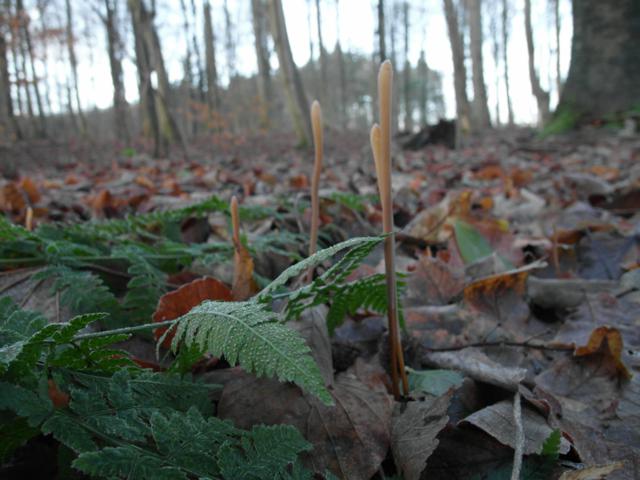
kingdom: Fungi
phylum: Basidiomycota
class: Agaricomycetes
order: Agaricales
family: Typhulaceae
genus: Typhula
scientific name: Typhula fistulosa
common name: pibet rørkølle
